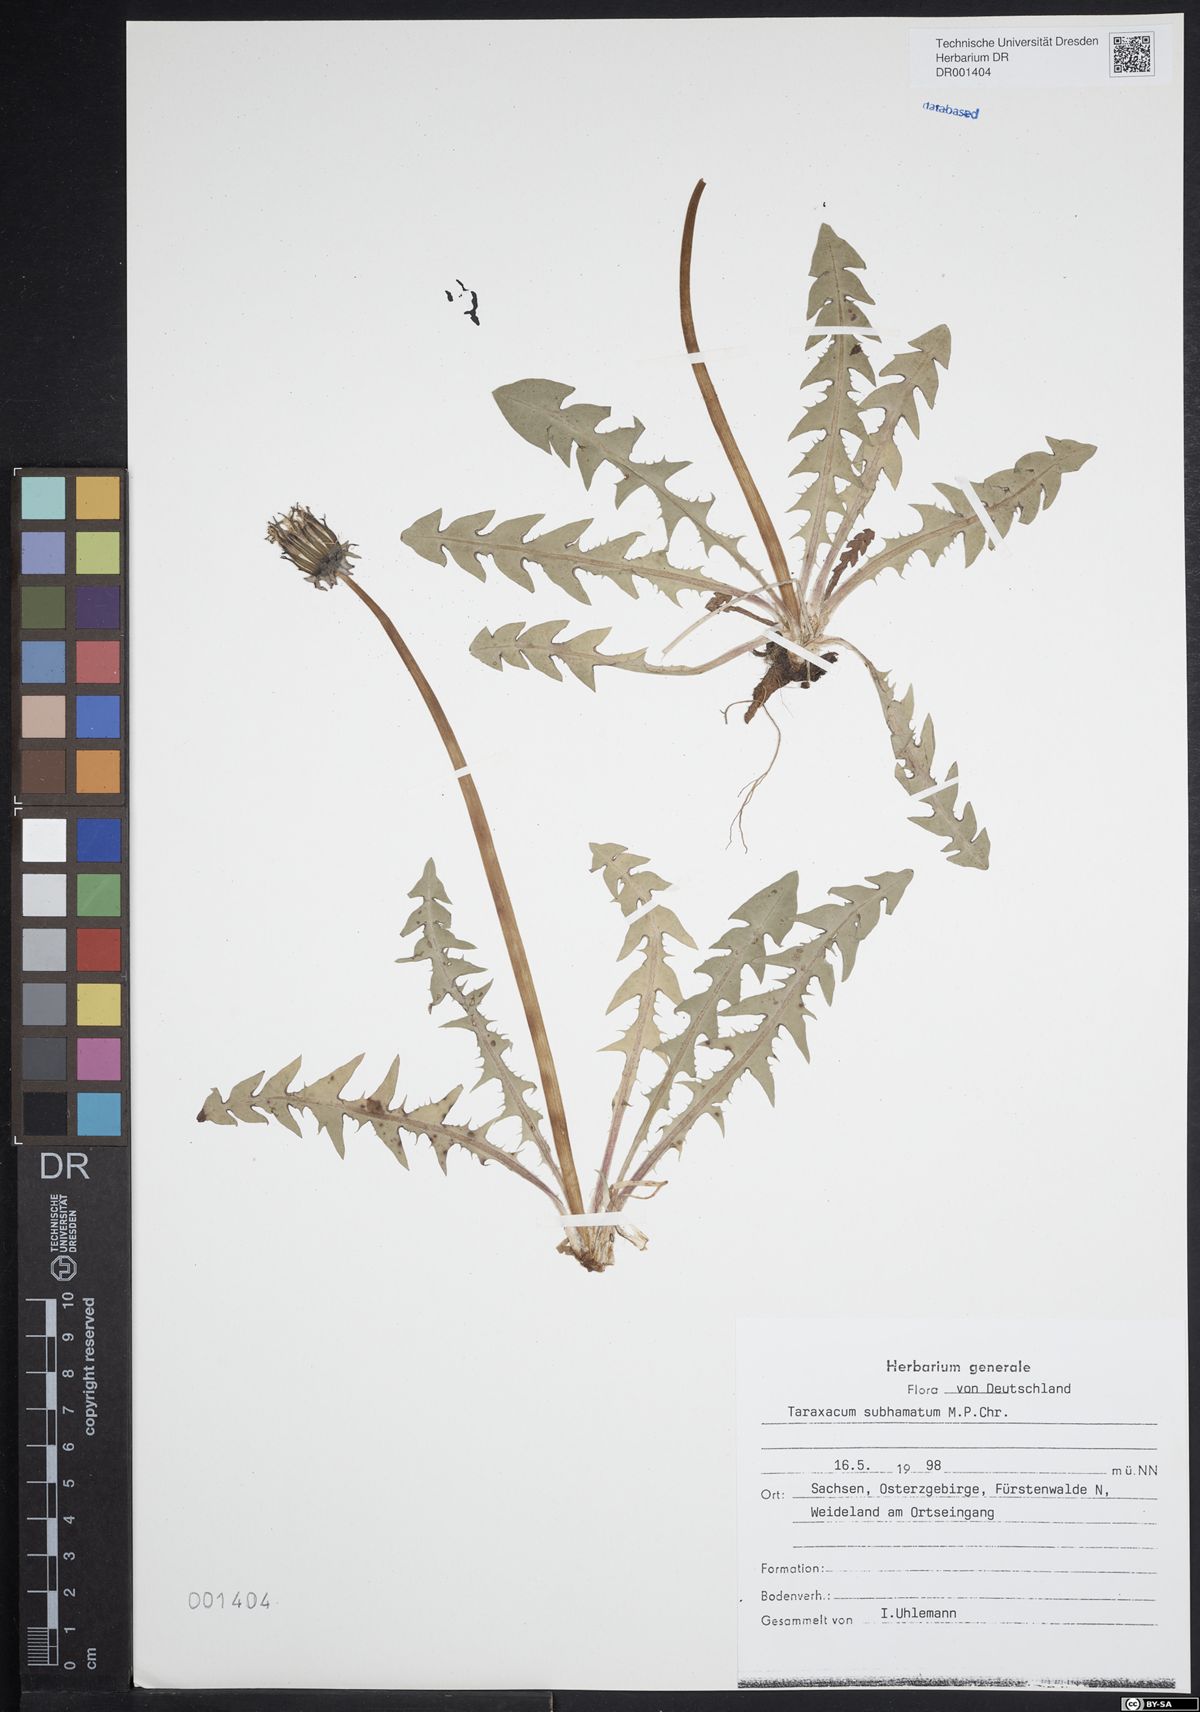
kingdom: Plantae
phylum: Tracheophyta
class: Magnoliopsida
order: Asterales
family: Asteraceae
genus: Taraxacum
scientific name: Taraxacum subhamatum
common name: Large hook-lobed dandelion
